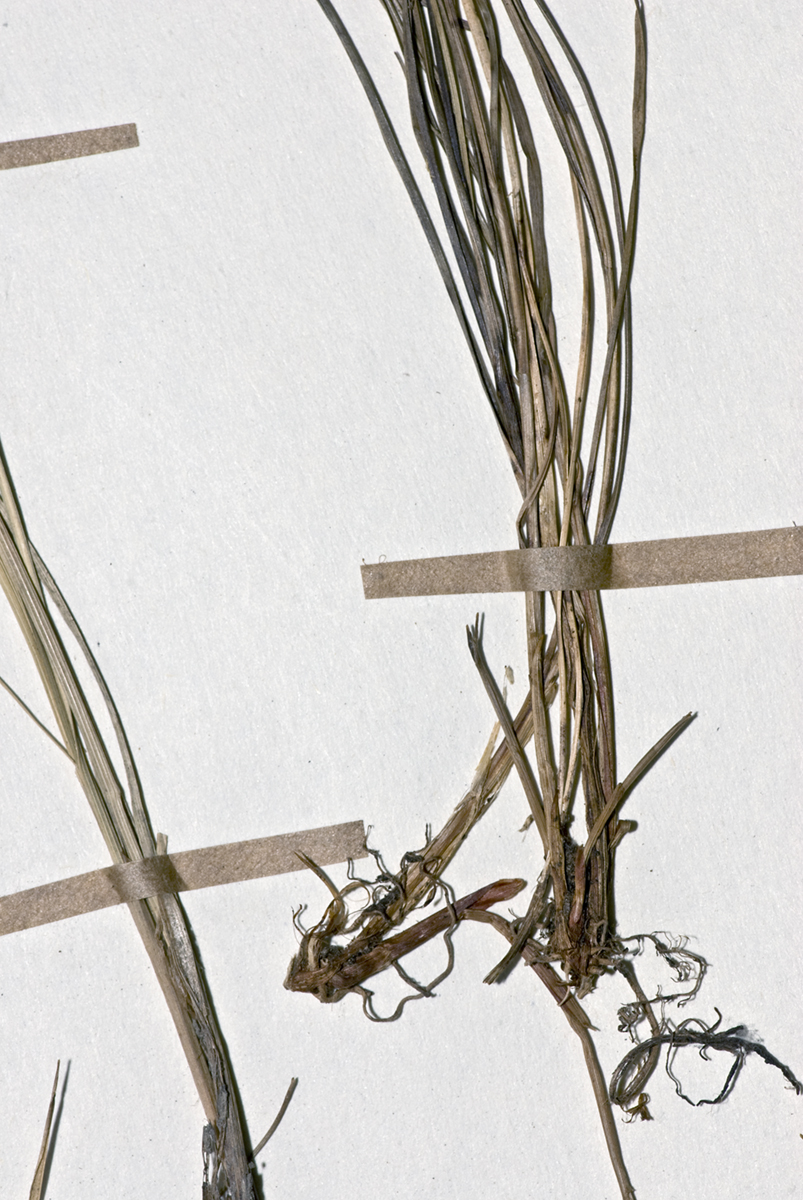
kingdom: Plantae
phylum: Tracheophyta
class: Liliopsida
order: Poales
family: Cyperaceae
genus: Carex
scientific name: Carex aucklandica
